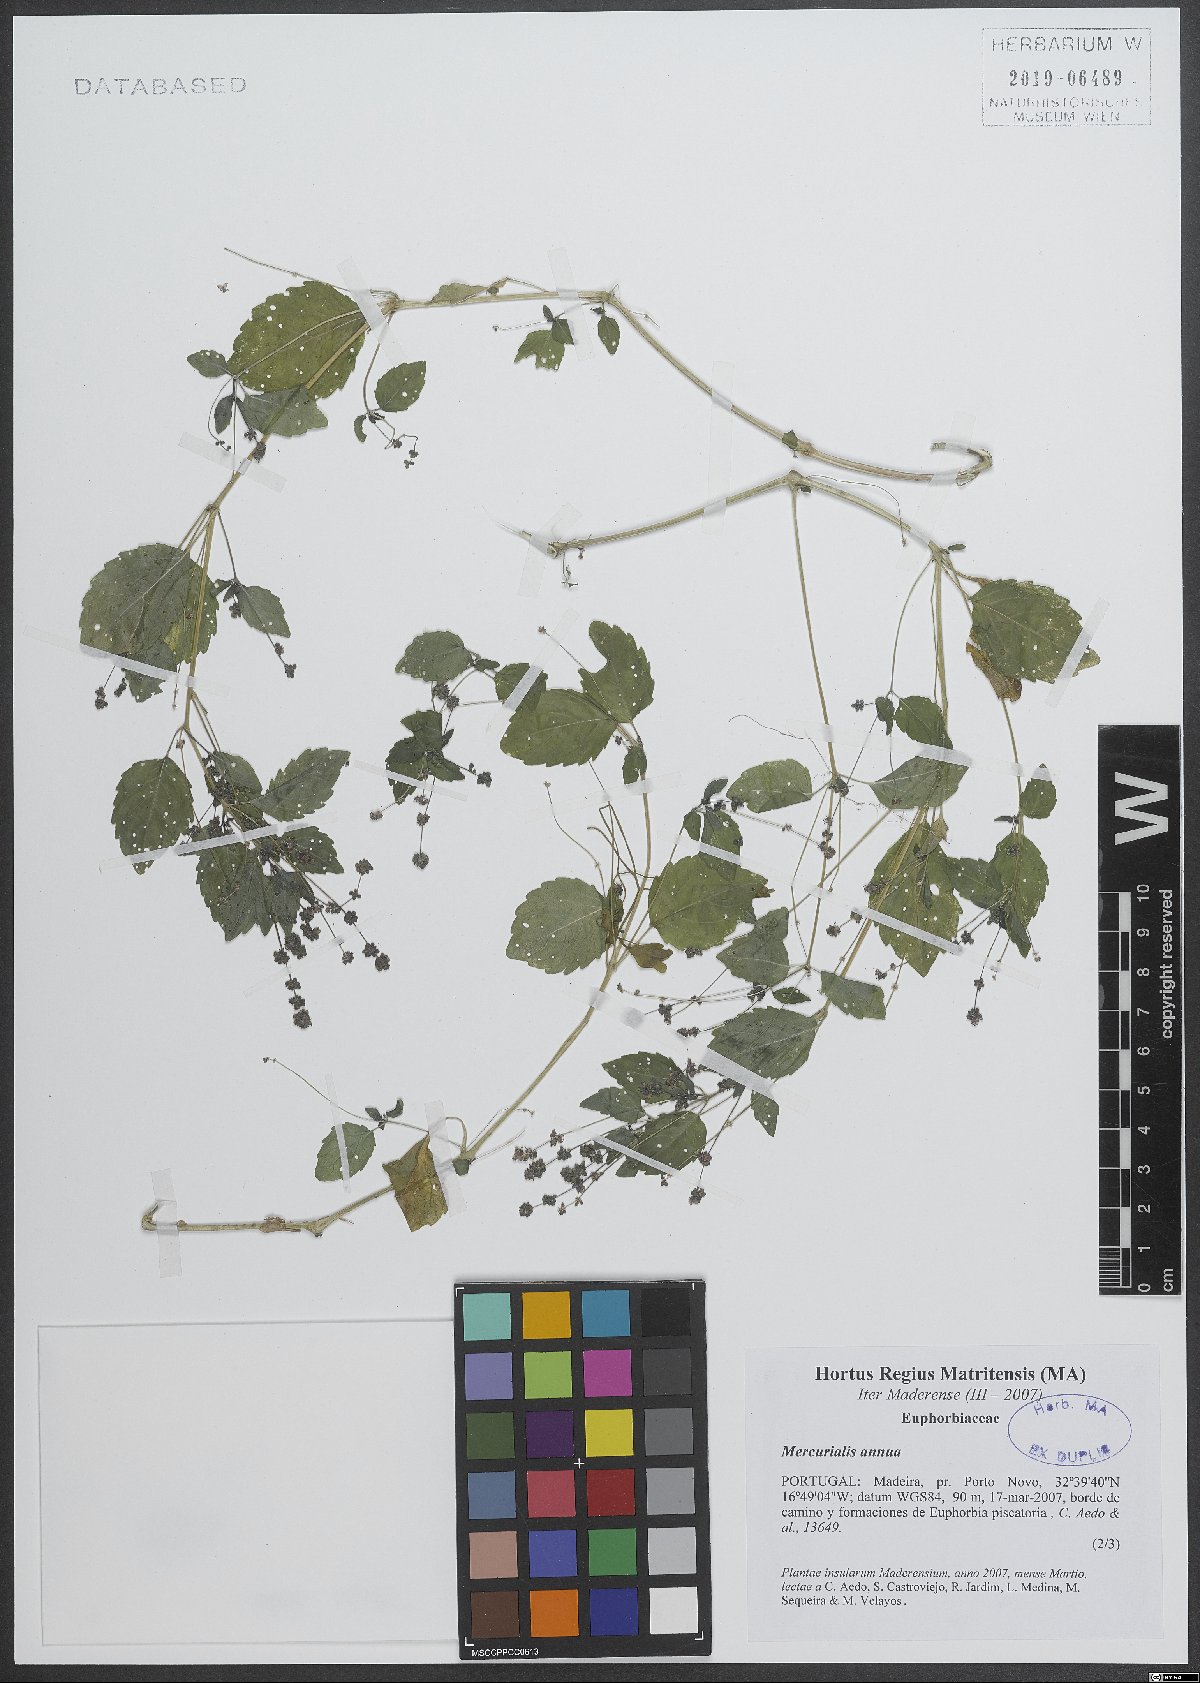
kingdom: Plantae
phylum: Tracheophyta
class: Magnoliopsida
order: Malpighiales
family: Euphorbiaceae
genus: Mercurialis
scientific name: Mercurialis annua
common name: Annual mercury
